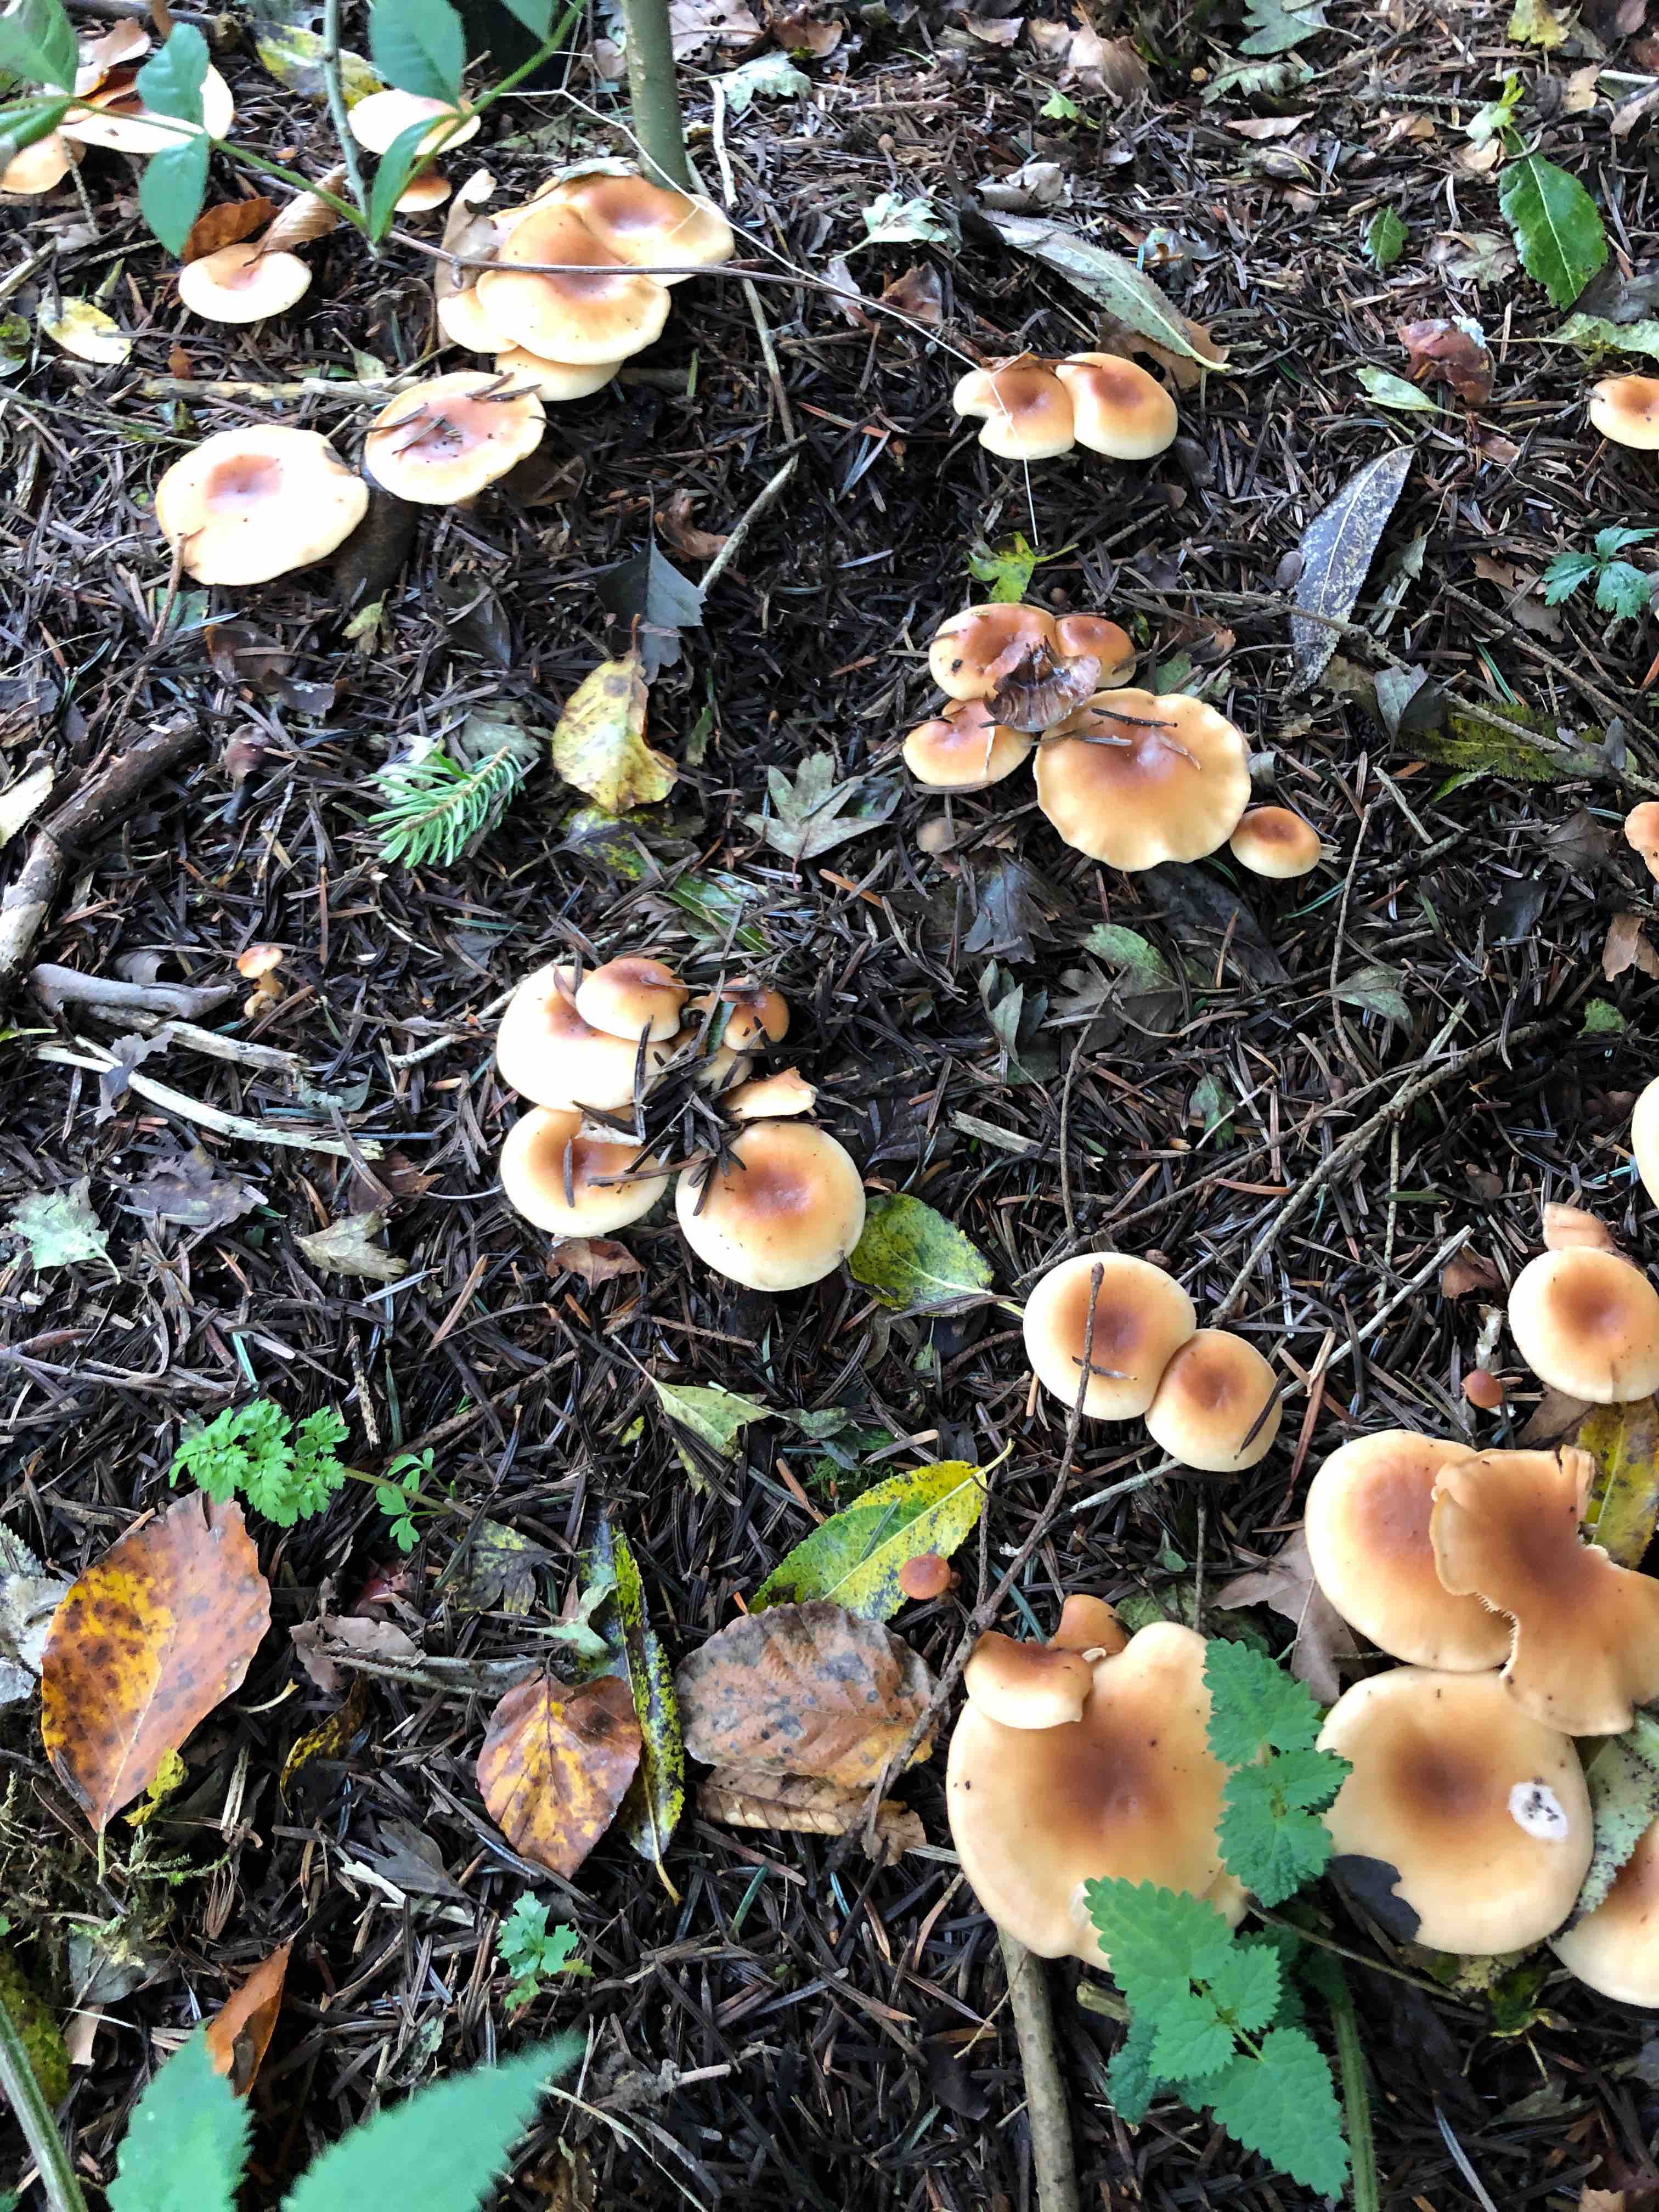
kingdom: Fungi
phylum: Basidiomycota
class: Agaricomycetes
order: Agaricales
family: Tricholomataceae
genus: Paralepista
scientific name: Paralepista flaccida
